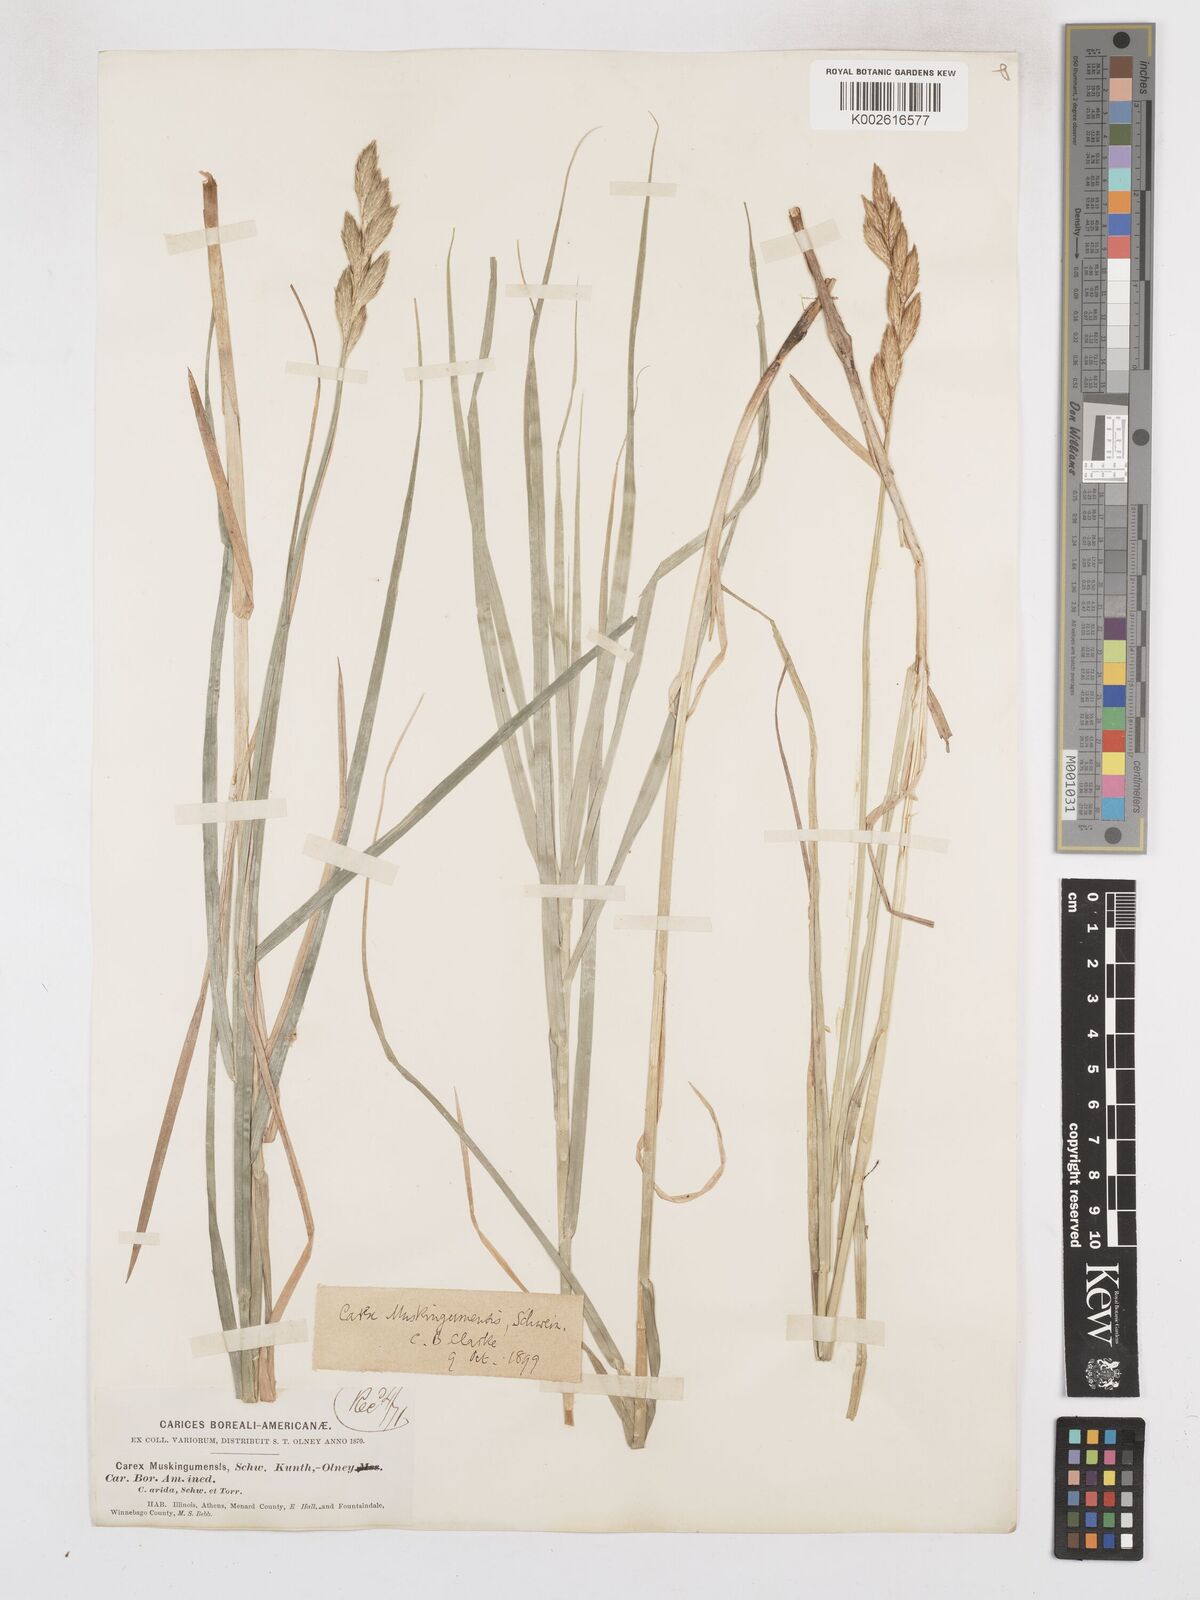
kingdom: Plantae
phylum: Tracheophyta
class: Liliopsida
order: Poales
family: Cyperaceae
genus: Carex
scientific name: Carex muskingumensis
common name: Muskingum sedge
